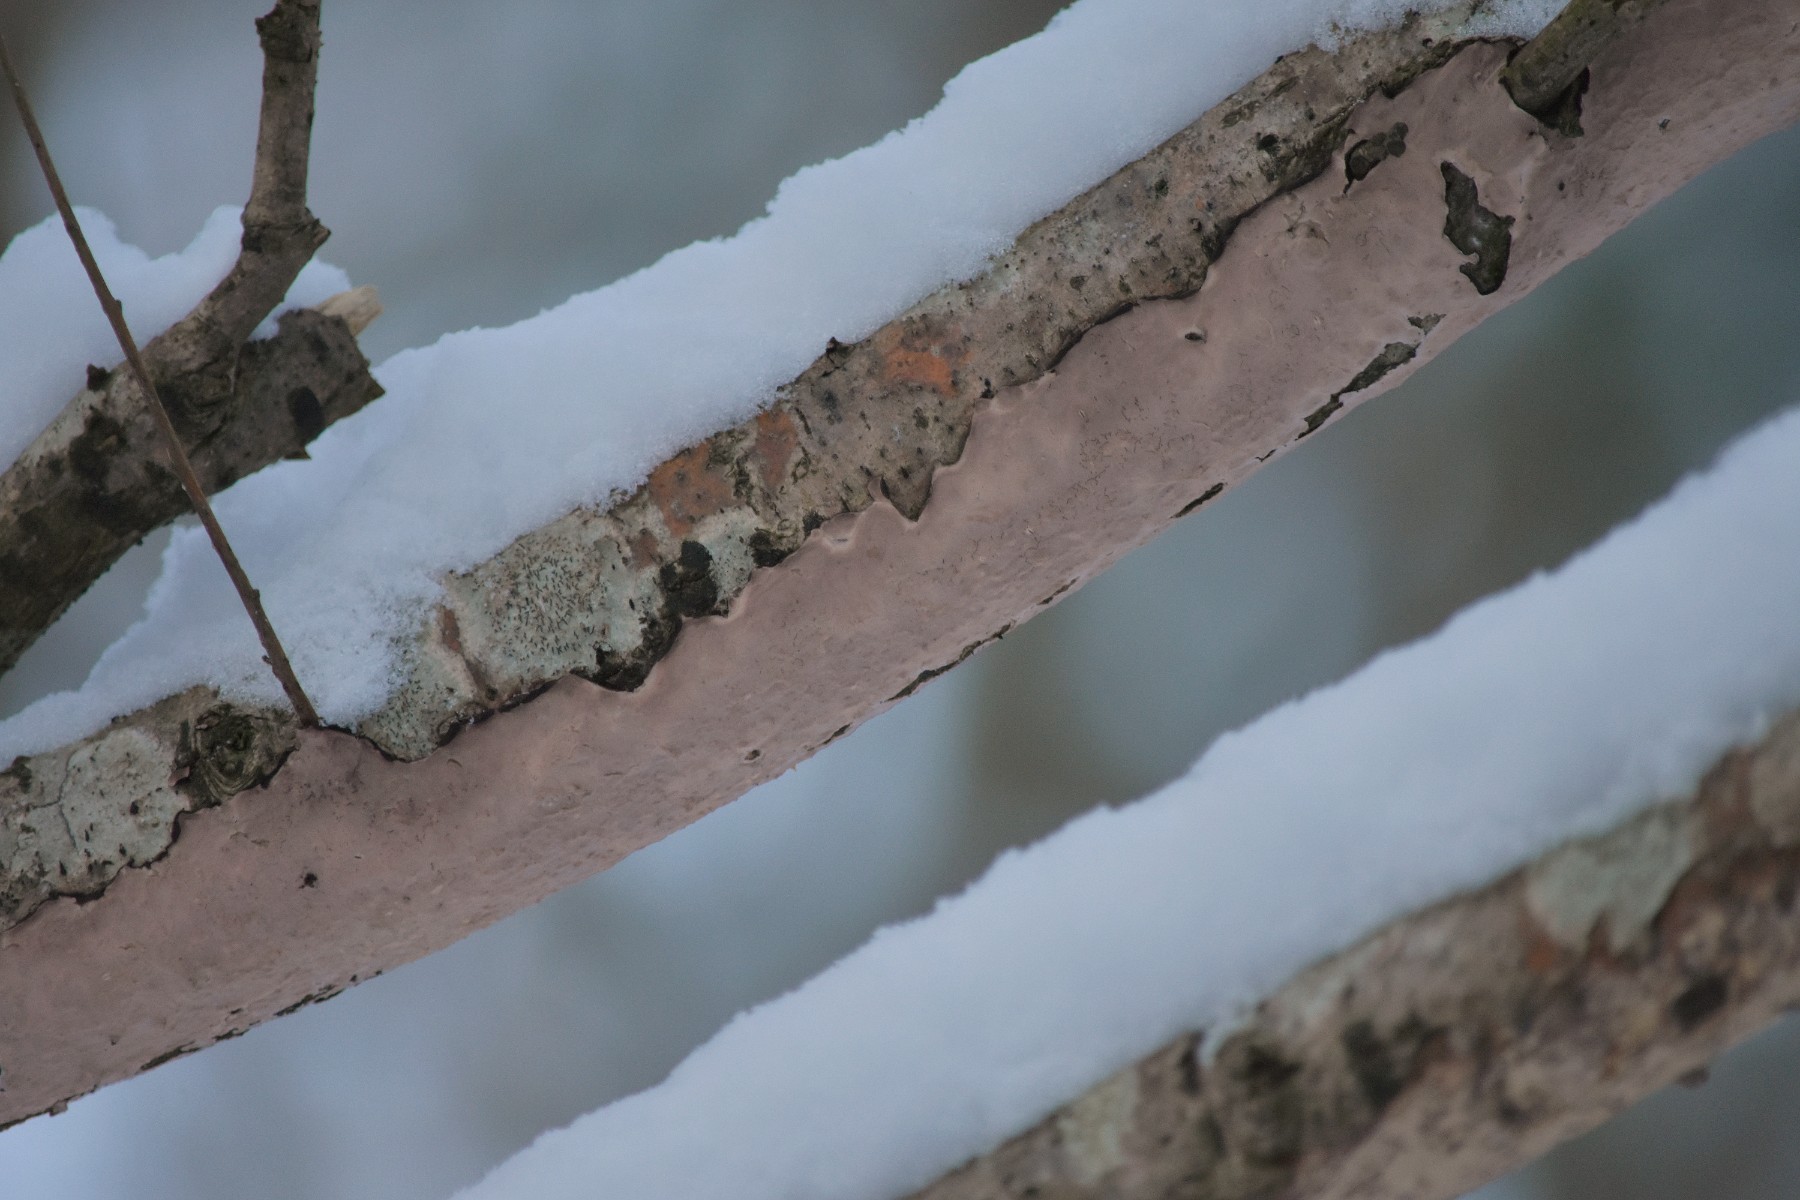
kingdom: Fungi
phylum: Basidiomycota
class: Agaricomycetes
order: Russulales
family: Peniophoraceae
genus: Peniophora
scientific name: Peniophora quercina
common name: ege-voksskind
